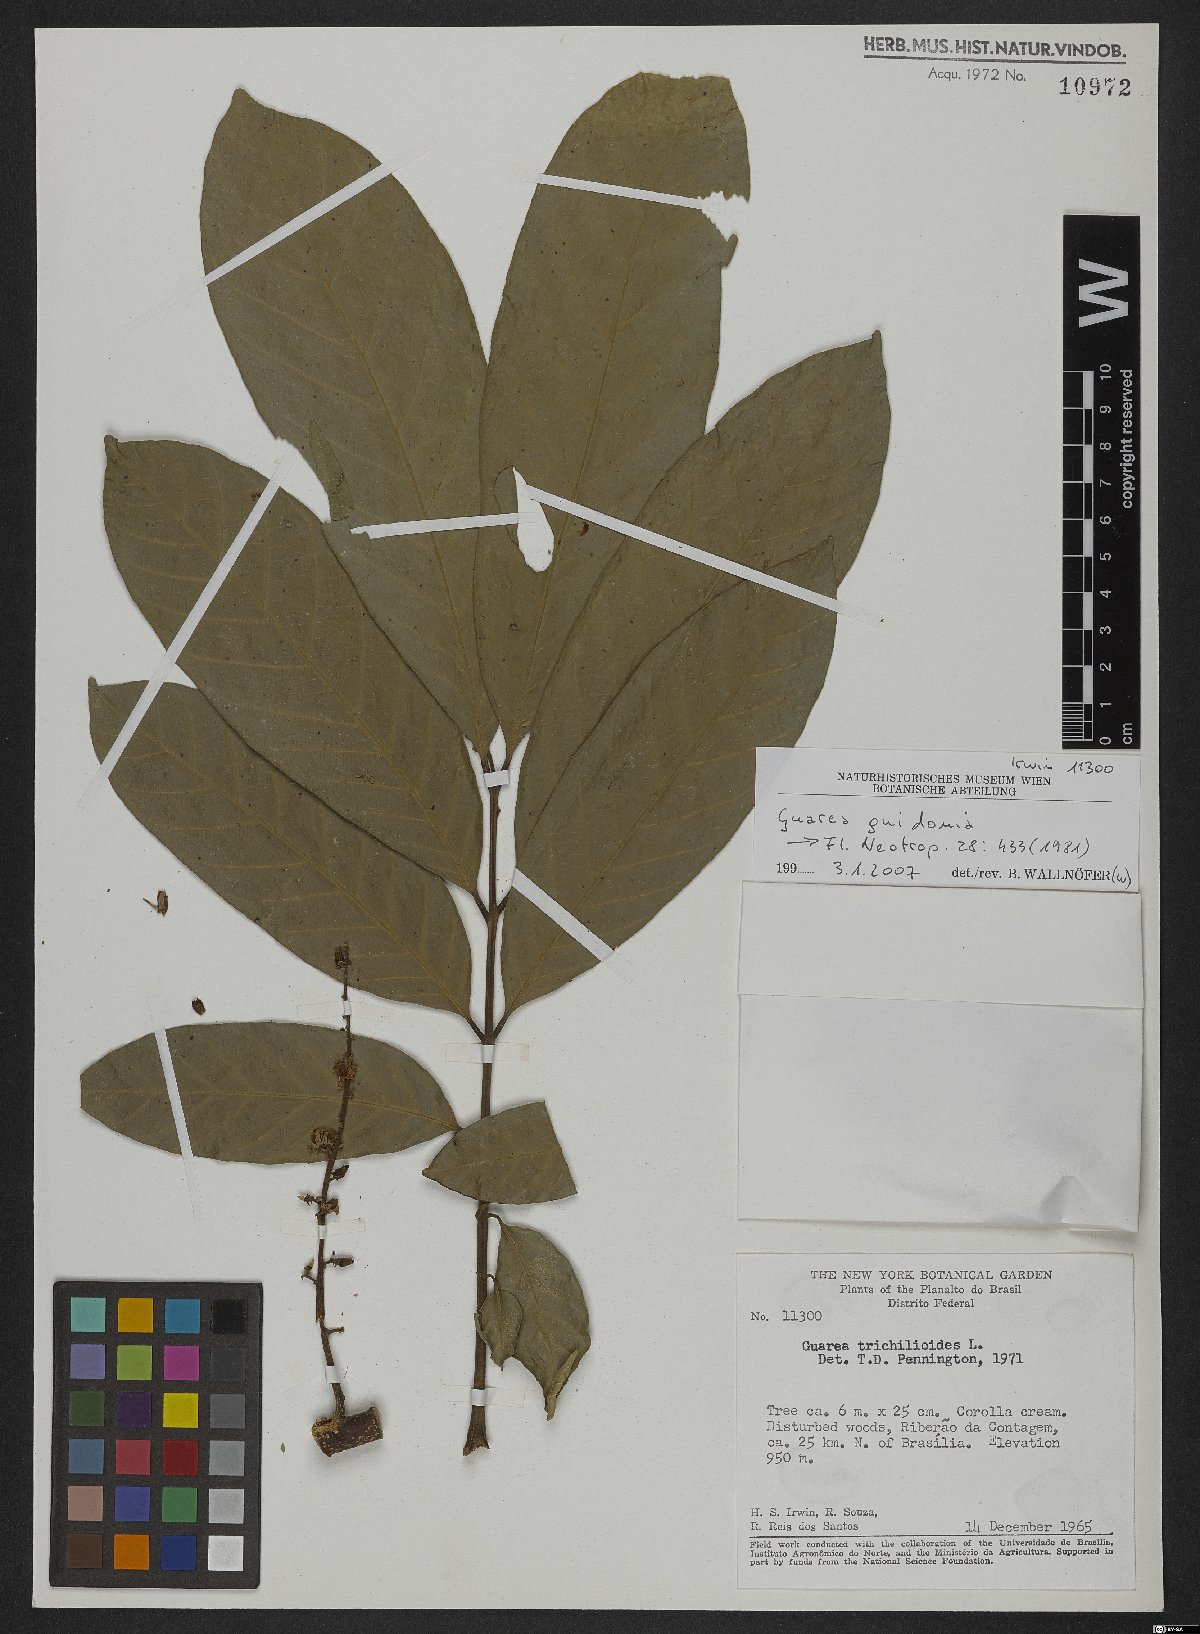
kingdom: Plantae
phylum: Tracheophyta
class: Magnoliopsida
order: Sapindales
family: Meliaceae
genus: Guarea
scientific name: Guarea guidonia
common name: American muskwood
